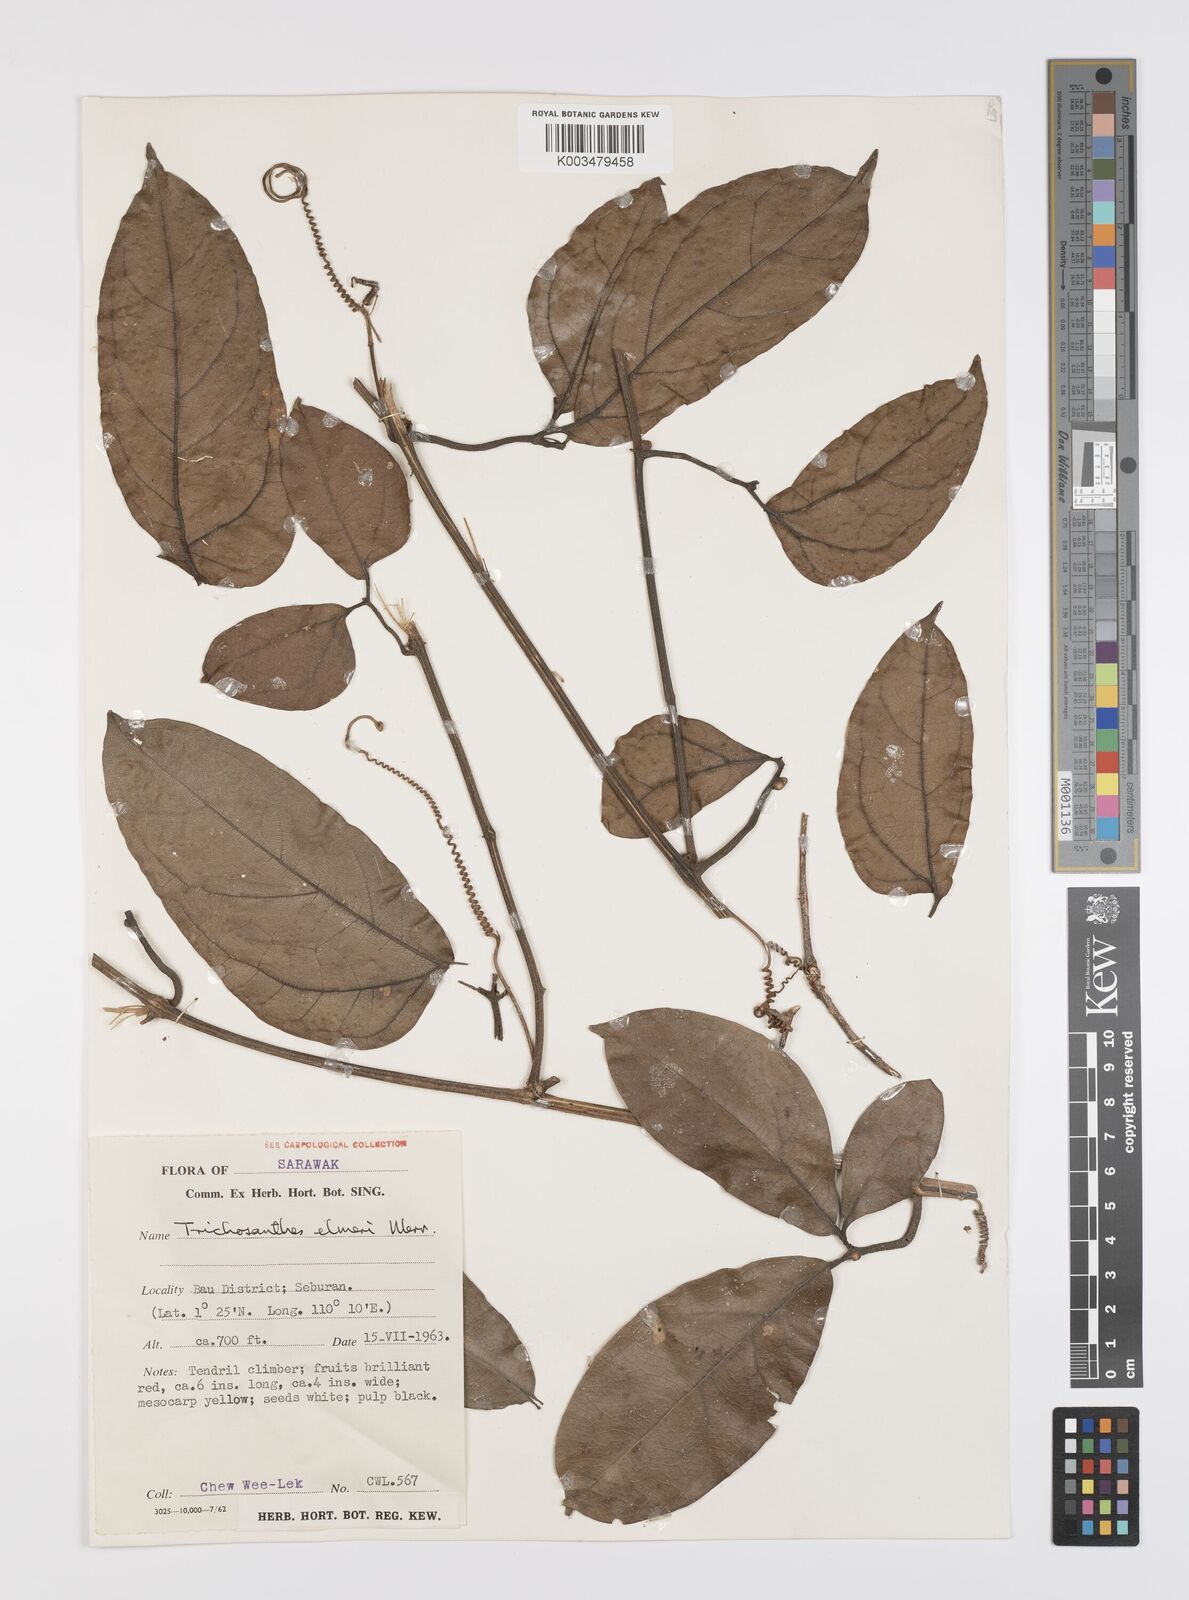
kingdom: Plantae
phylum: Tracheophyta
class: Magnoliopsida
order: Cucurbitales
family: Cucurbitaceae
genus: Trichosanthes
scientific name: Trichosanthes elmeri
